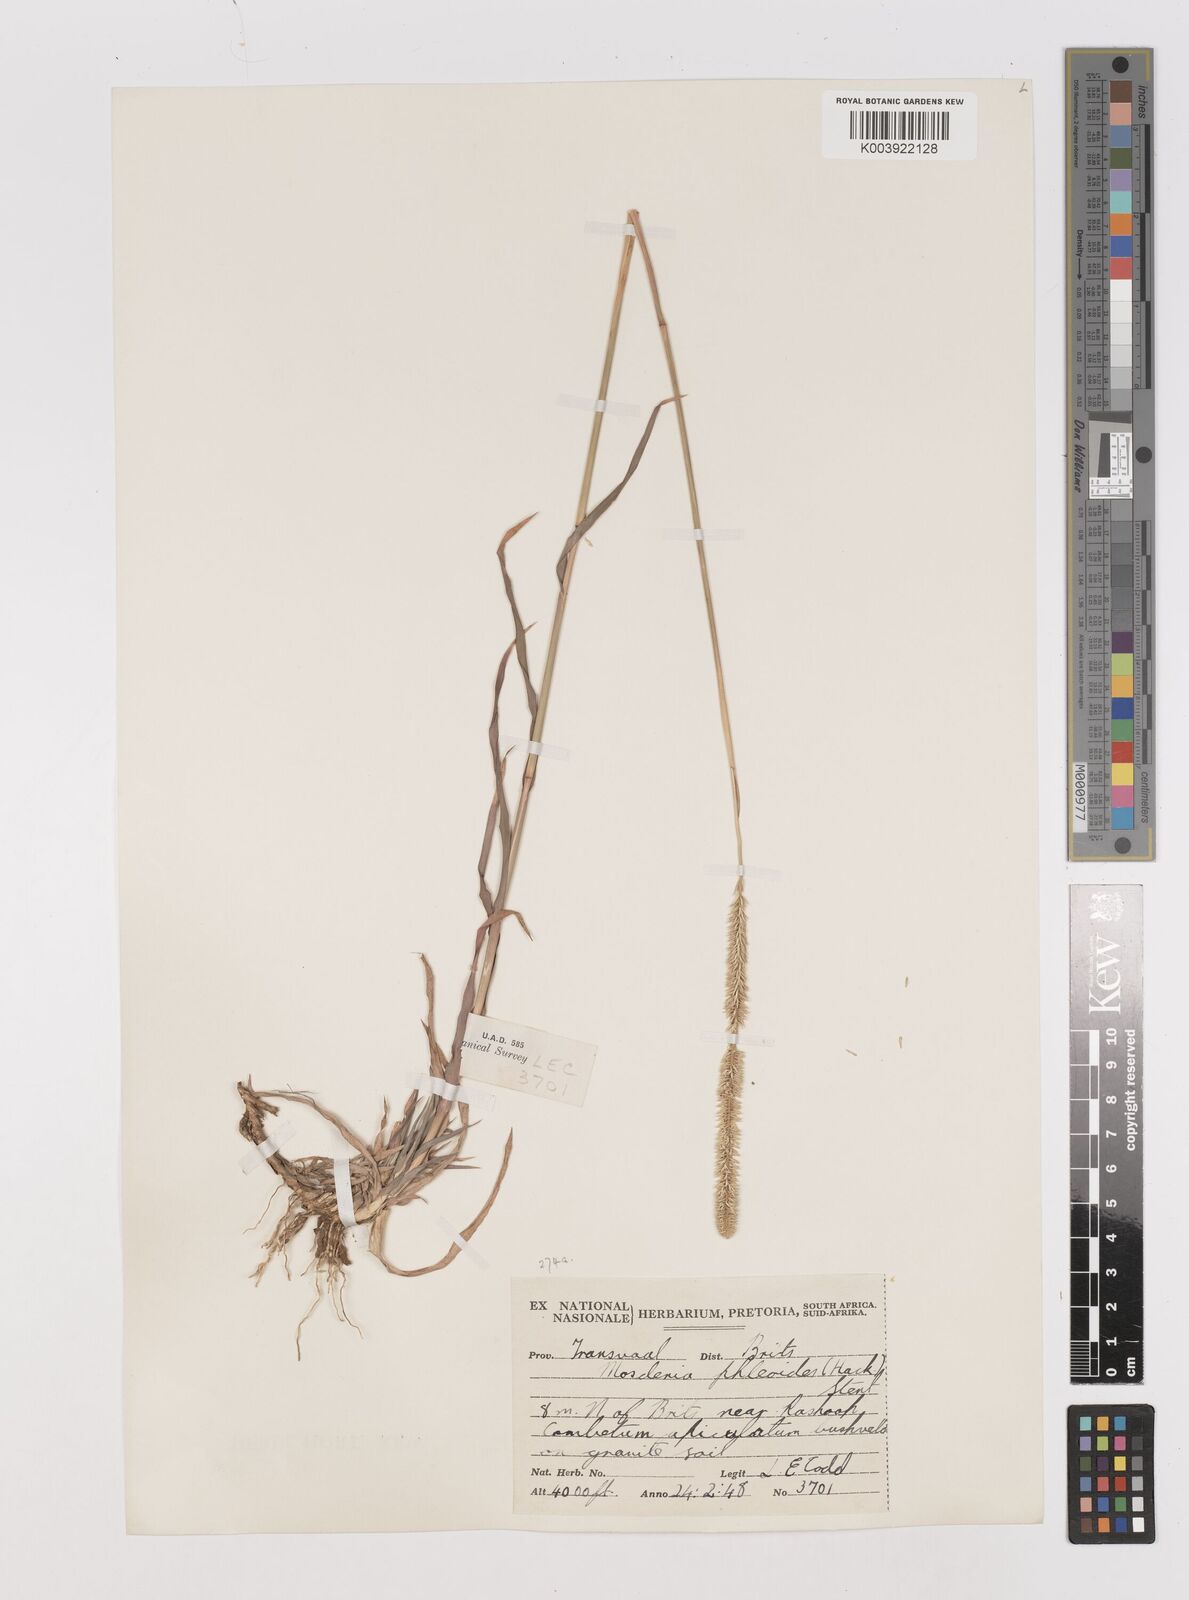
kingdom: Plantae
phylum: Tracheophyta
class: Liliopsida
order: Poales
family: Poaceae
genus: Mosdenia
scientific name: Mosdenia leptostachys
